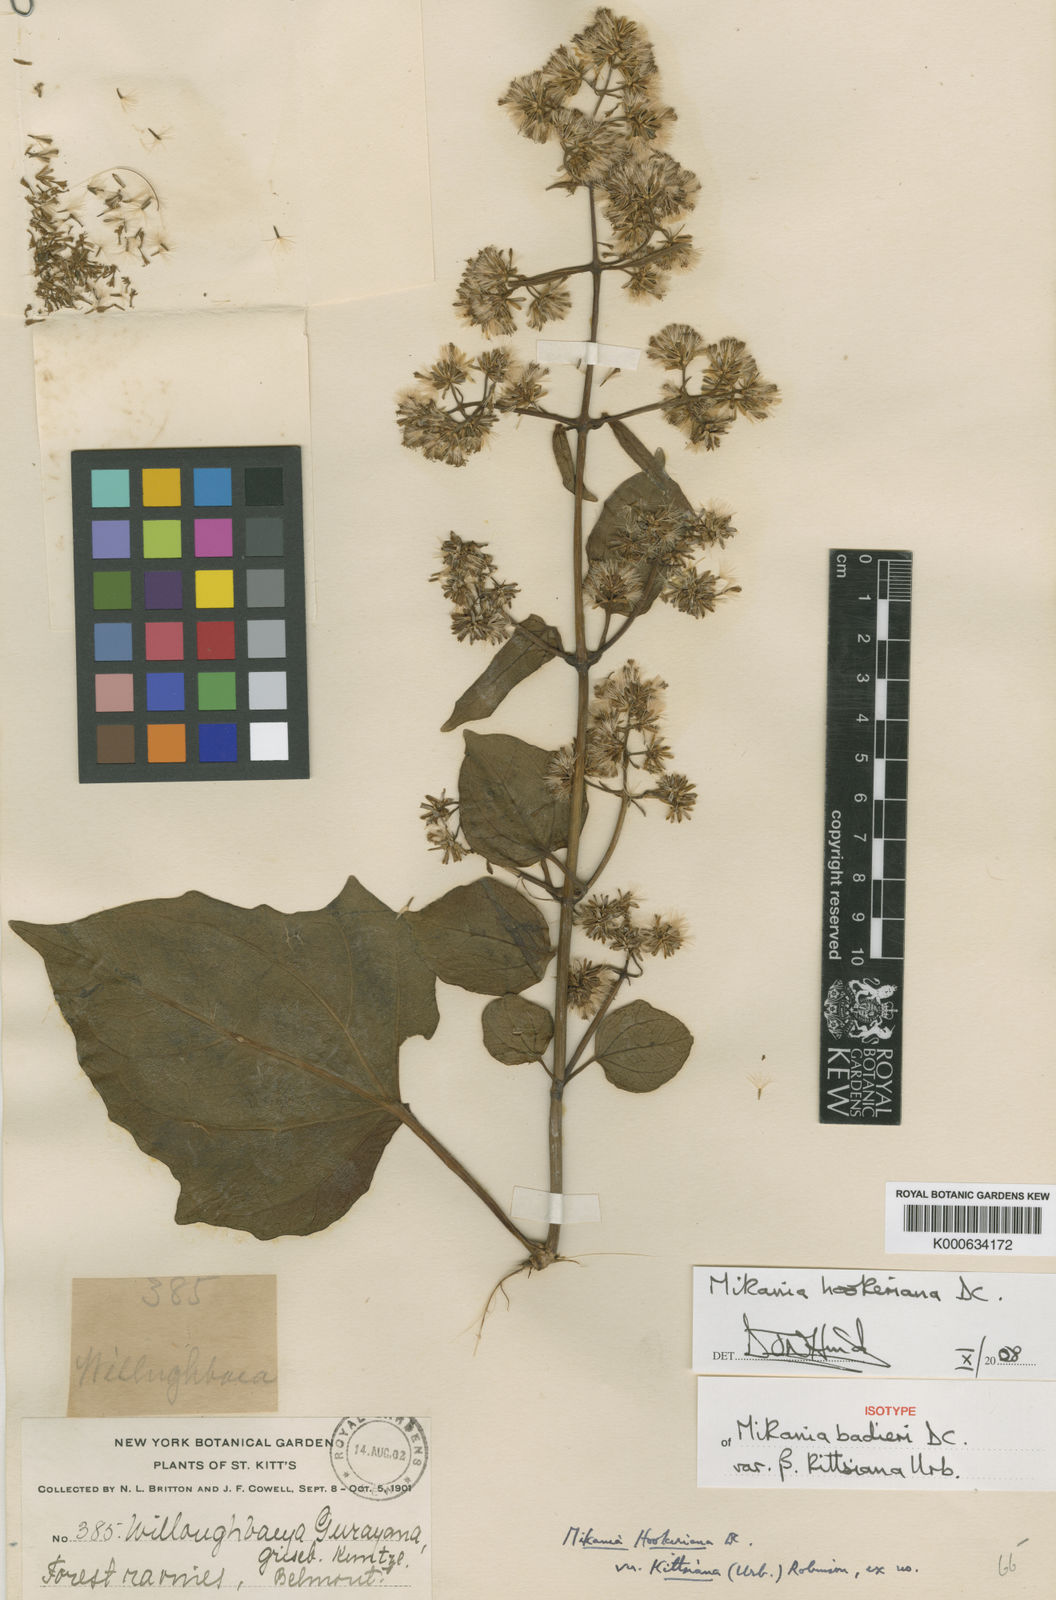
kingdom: Plantae
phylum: Tracheophyta
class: Magnoliopsida
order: Asterales
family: Asteraceae
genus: Mikania
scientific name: Mikania hookeriana
